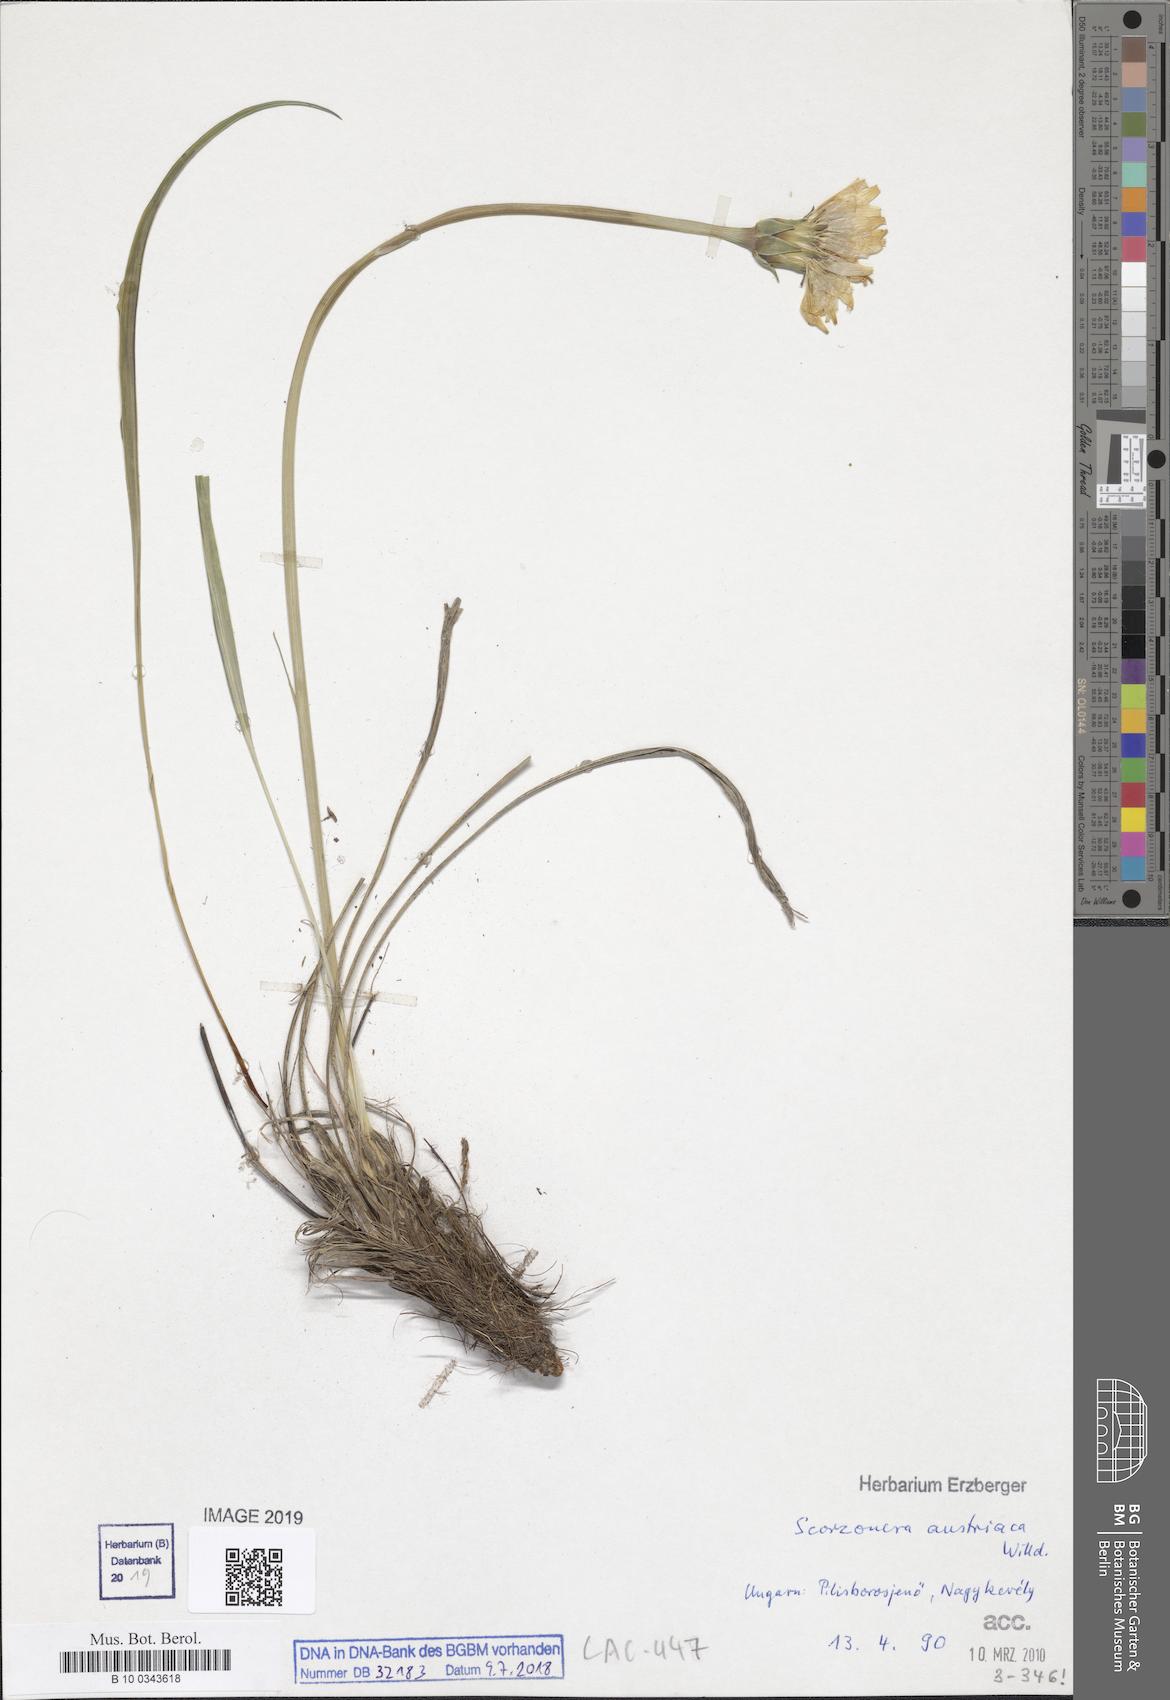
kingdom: Plantae
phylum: Tracheophyta
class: Magnoliopsida
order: Asterales
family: Asteraceae
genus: Takhtajaniantha
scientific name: Takhtajaniantha austriaca
